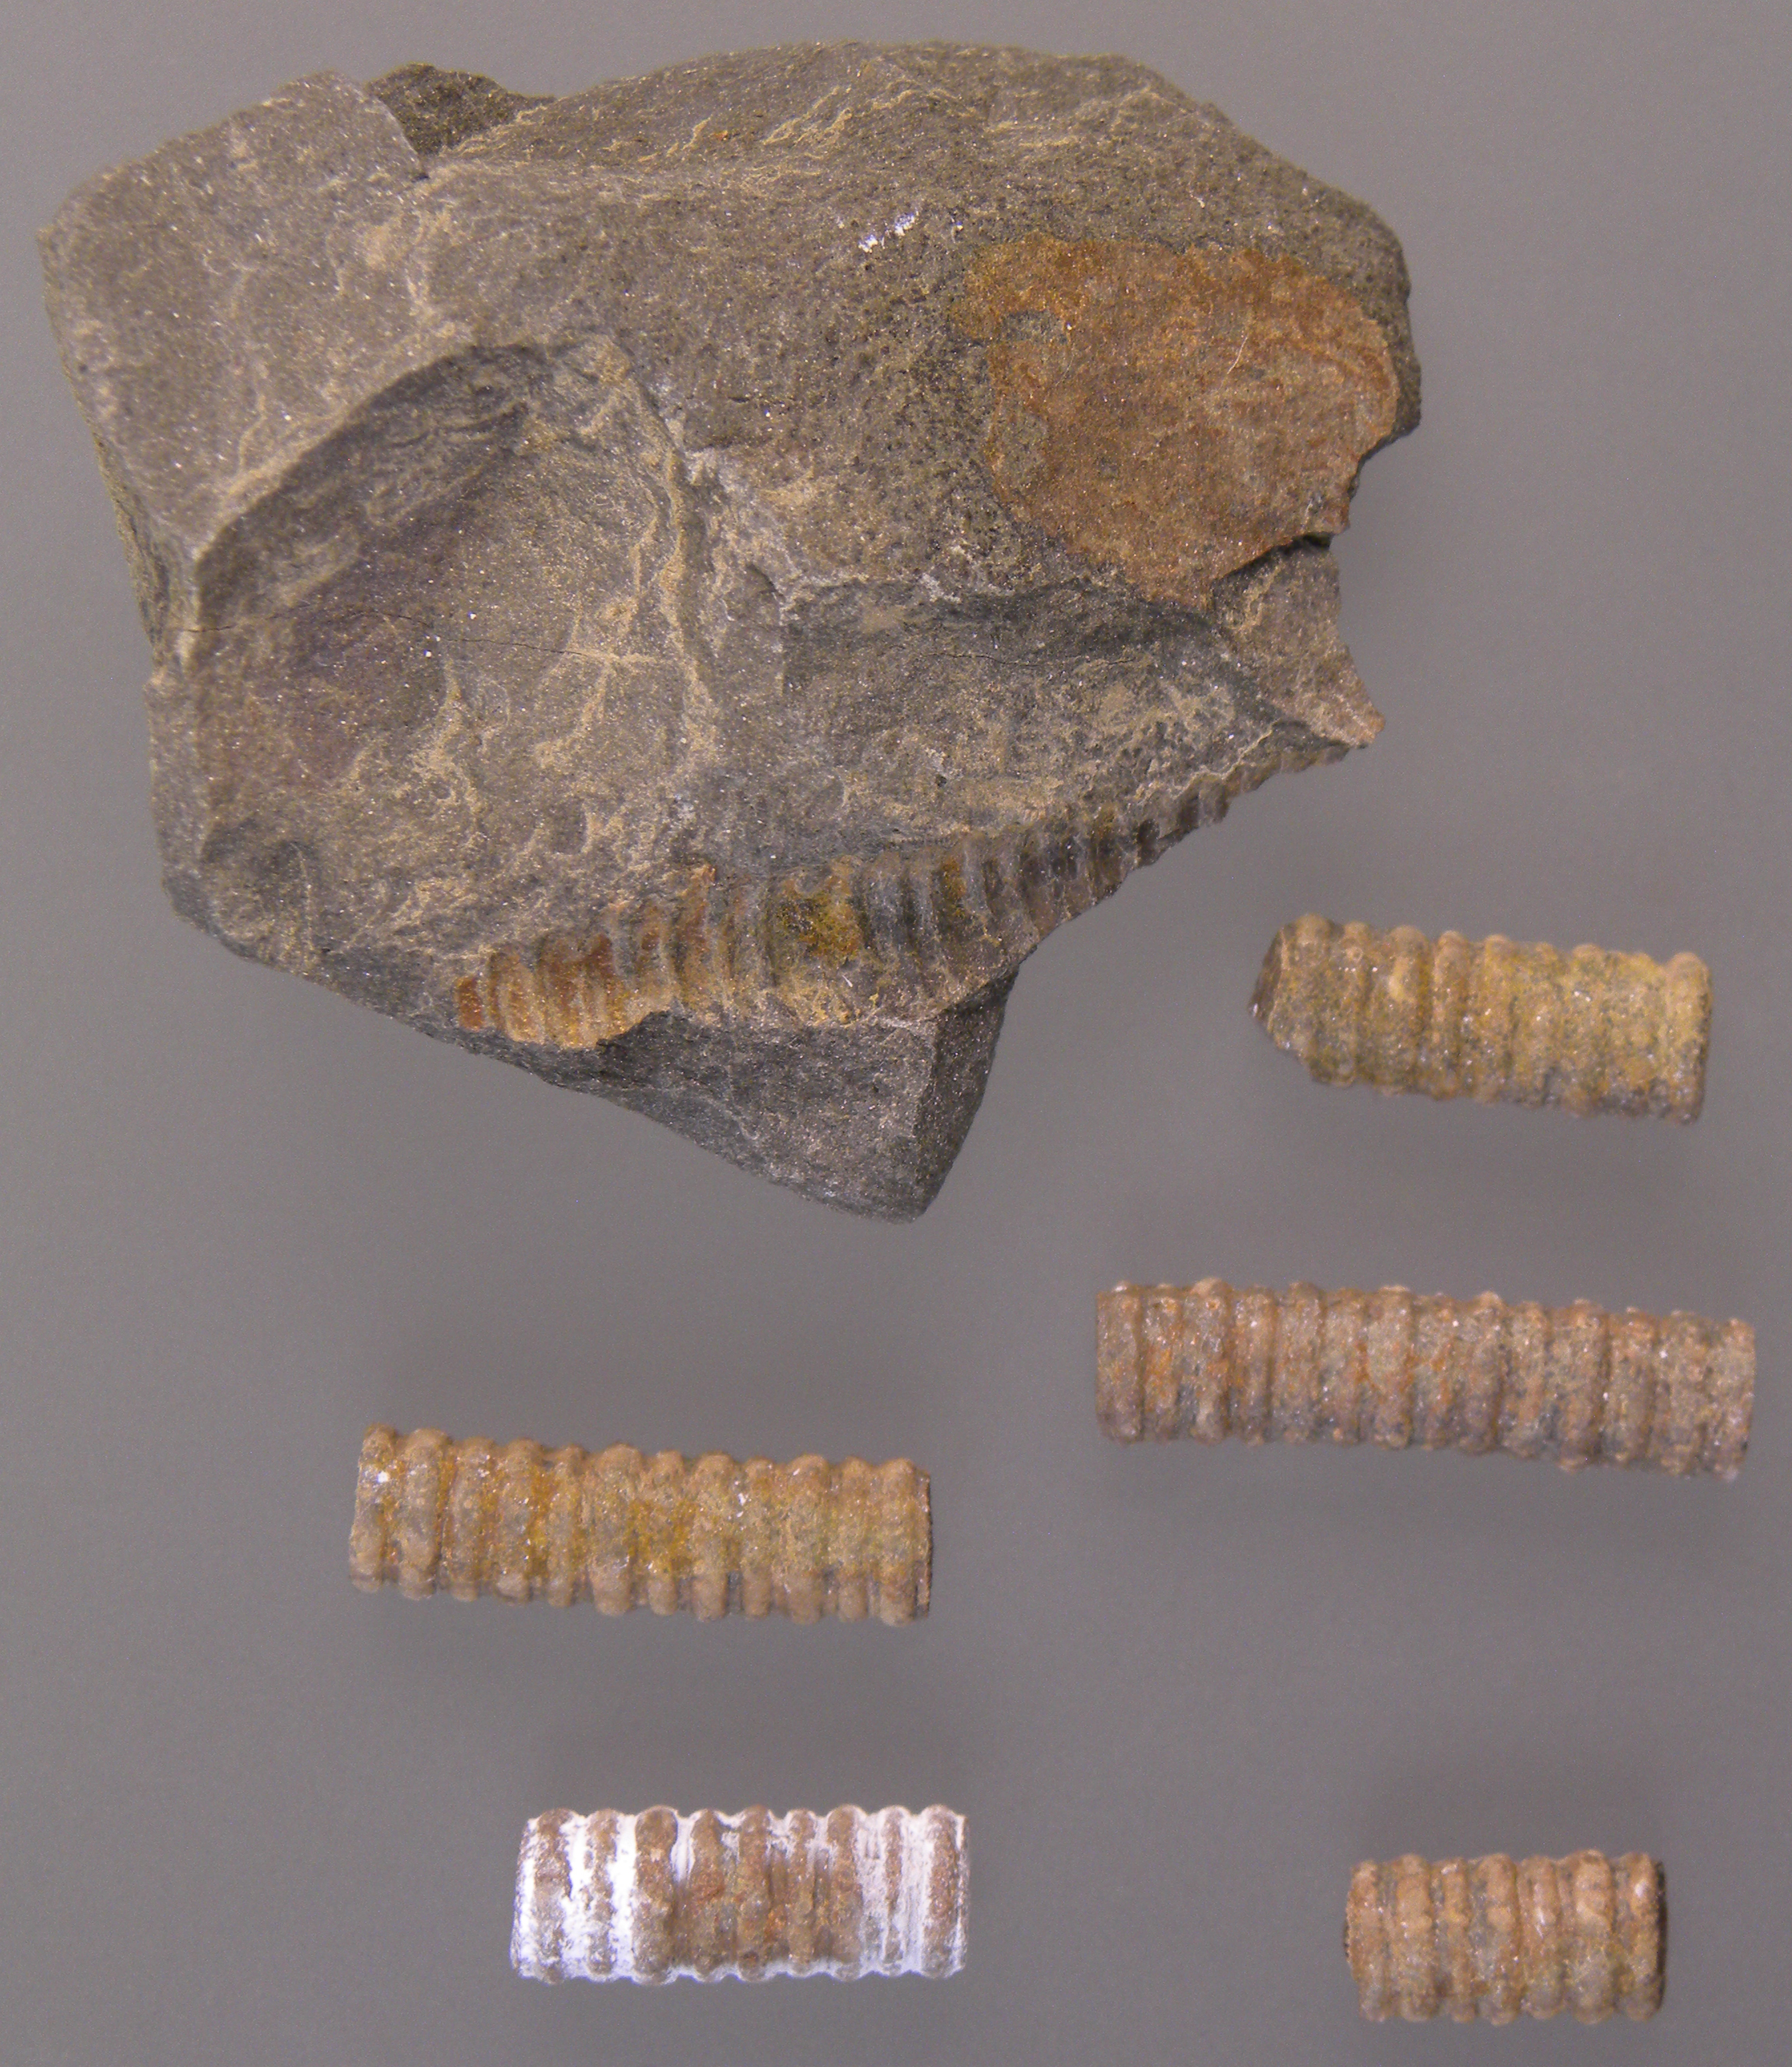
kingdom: Animalia
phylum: Echinodermata
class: Crinoidea
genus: Facetocrinus
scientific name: Facetocrinus
